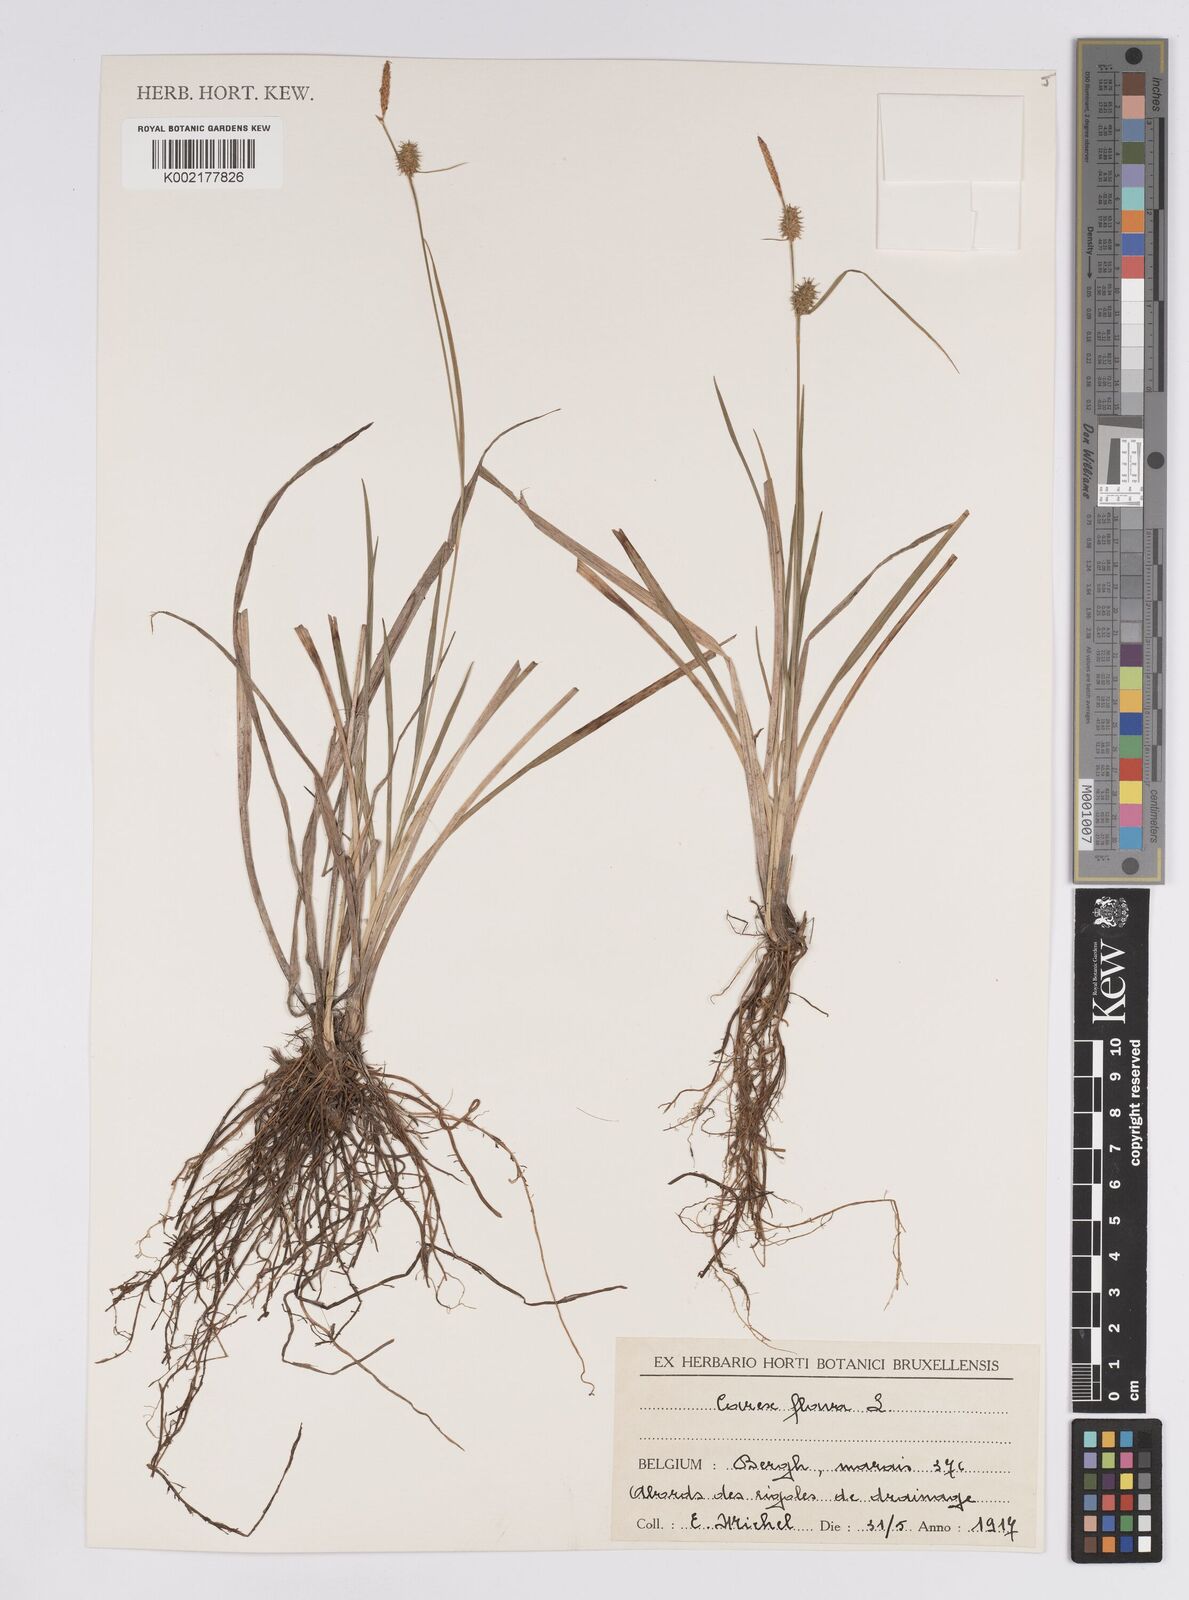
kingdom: Plantae
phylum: Tracheophyta
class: Liliopsida
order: Poales
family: Cyperaceae
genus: Carex
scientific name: Carex flava
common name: Large yellow-sedge
